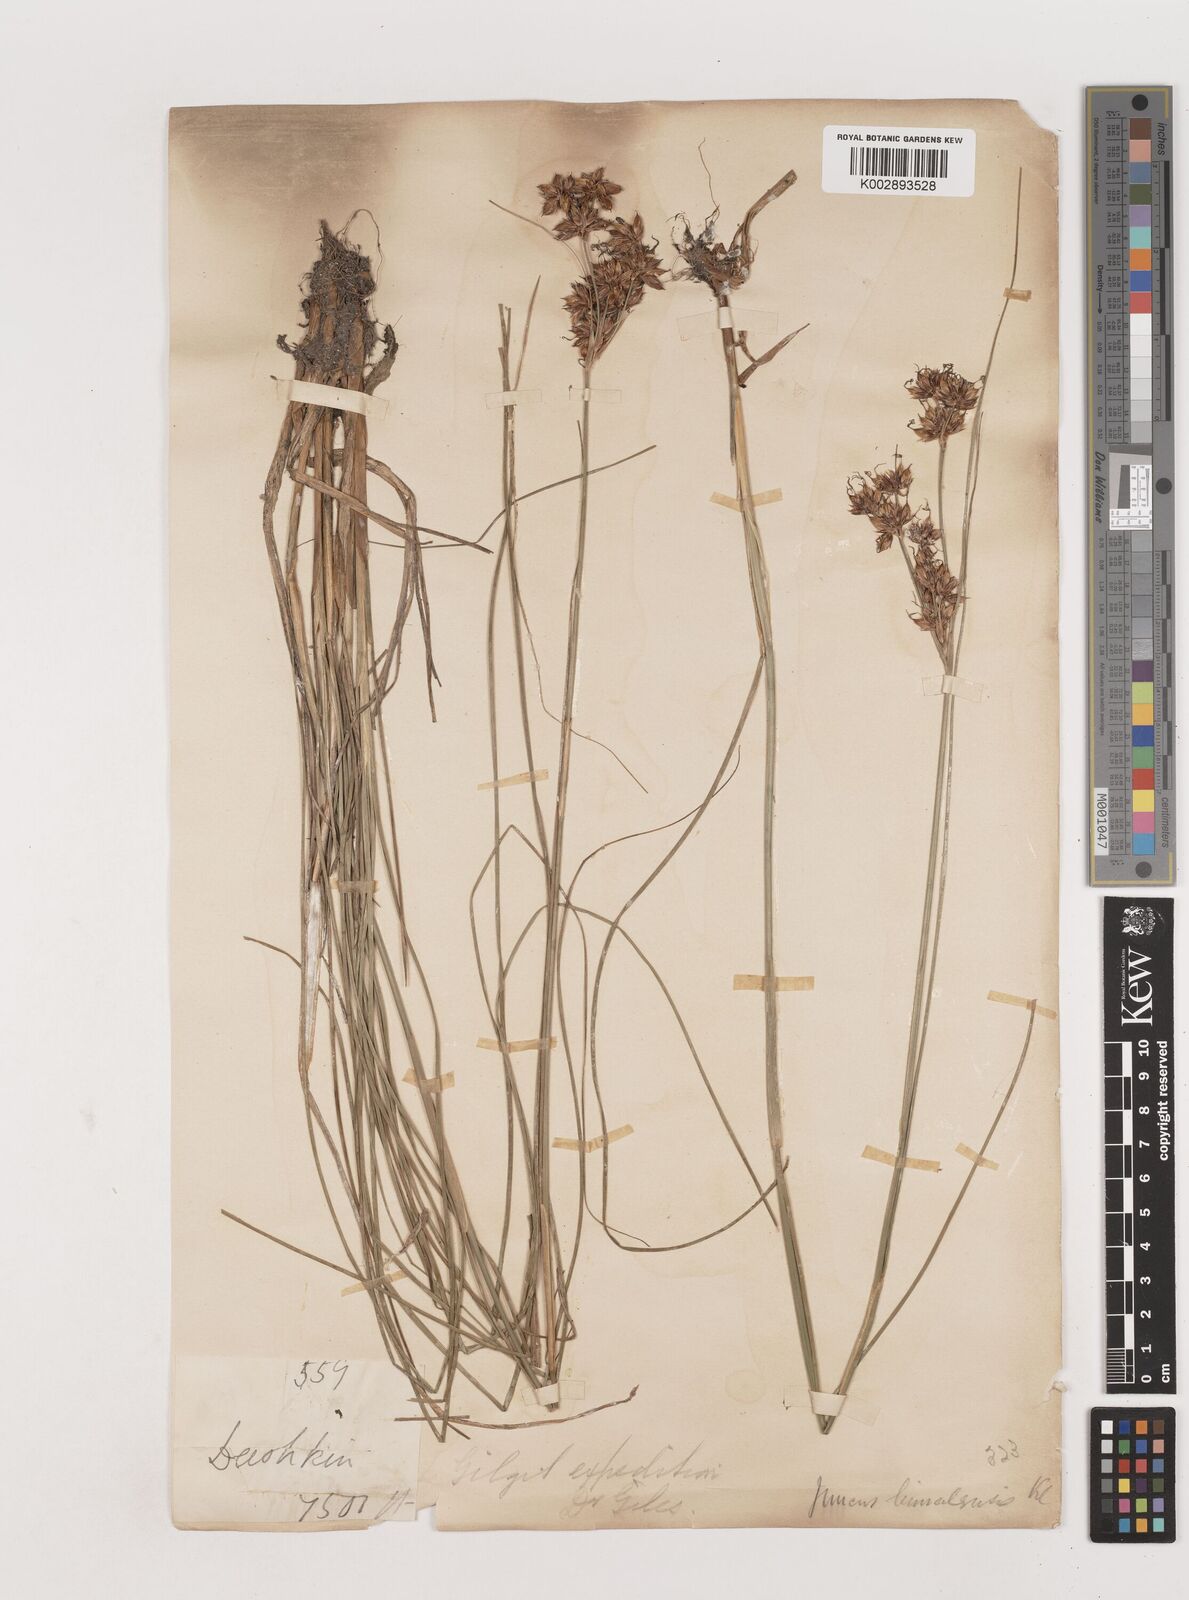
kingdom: Plantae
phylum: Tracheophyta
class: Liliopsida
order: Poales
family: Juncaceae
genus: Juncus
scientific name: Juncus himalensis
